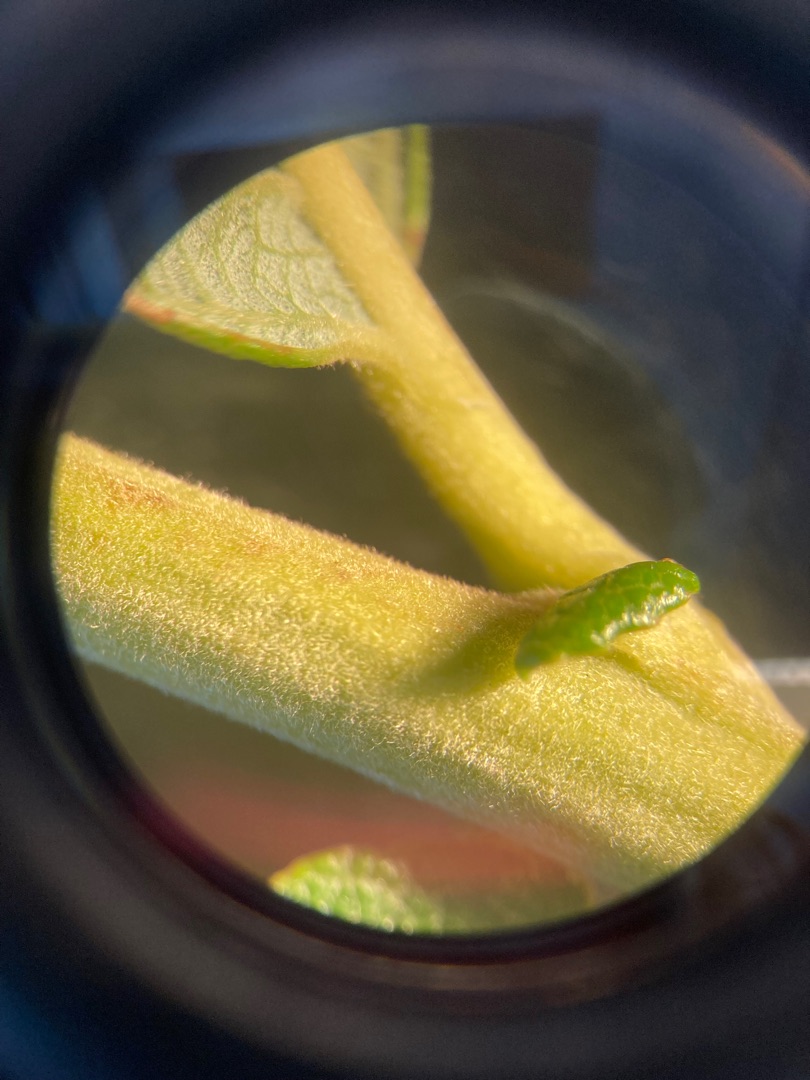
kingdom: Plantae
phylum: Tracheophyta
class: Magnoliopsida
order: Malpighiales
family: Salicaceae
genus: Salix
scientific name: Salix cinerea
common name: Grå-pil
